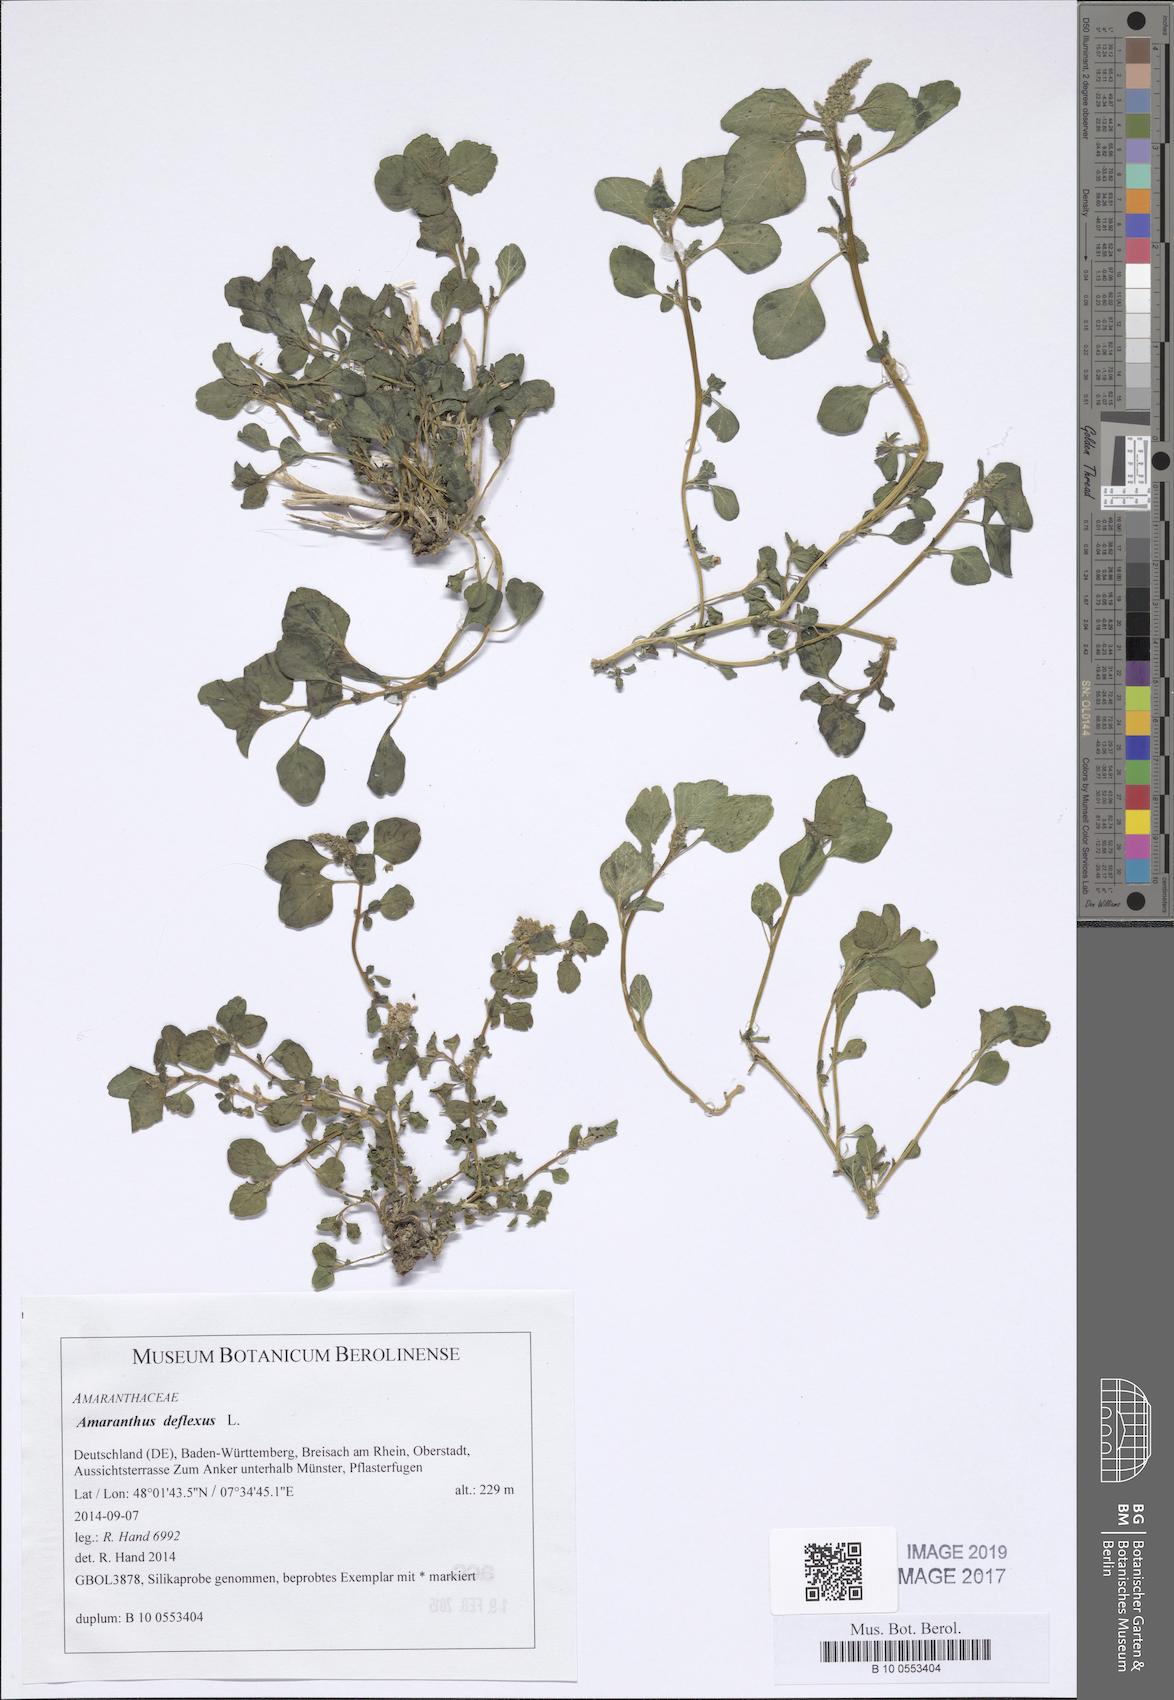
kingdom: Plantae
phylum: Tracheophyta
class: Magnoliopsida
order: Caryophyllales
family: Amaranthaceae
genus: Amaranthus
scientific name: Amaranthus deflexus
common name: Perennial pigweed
